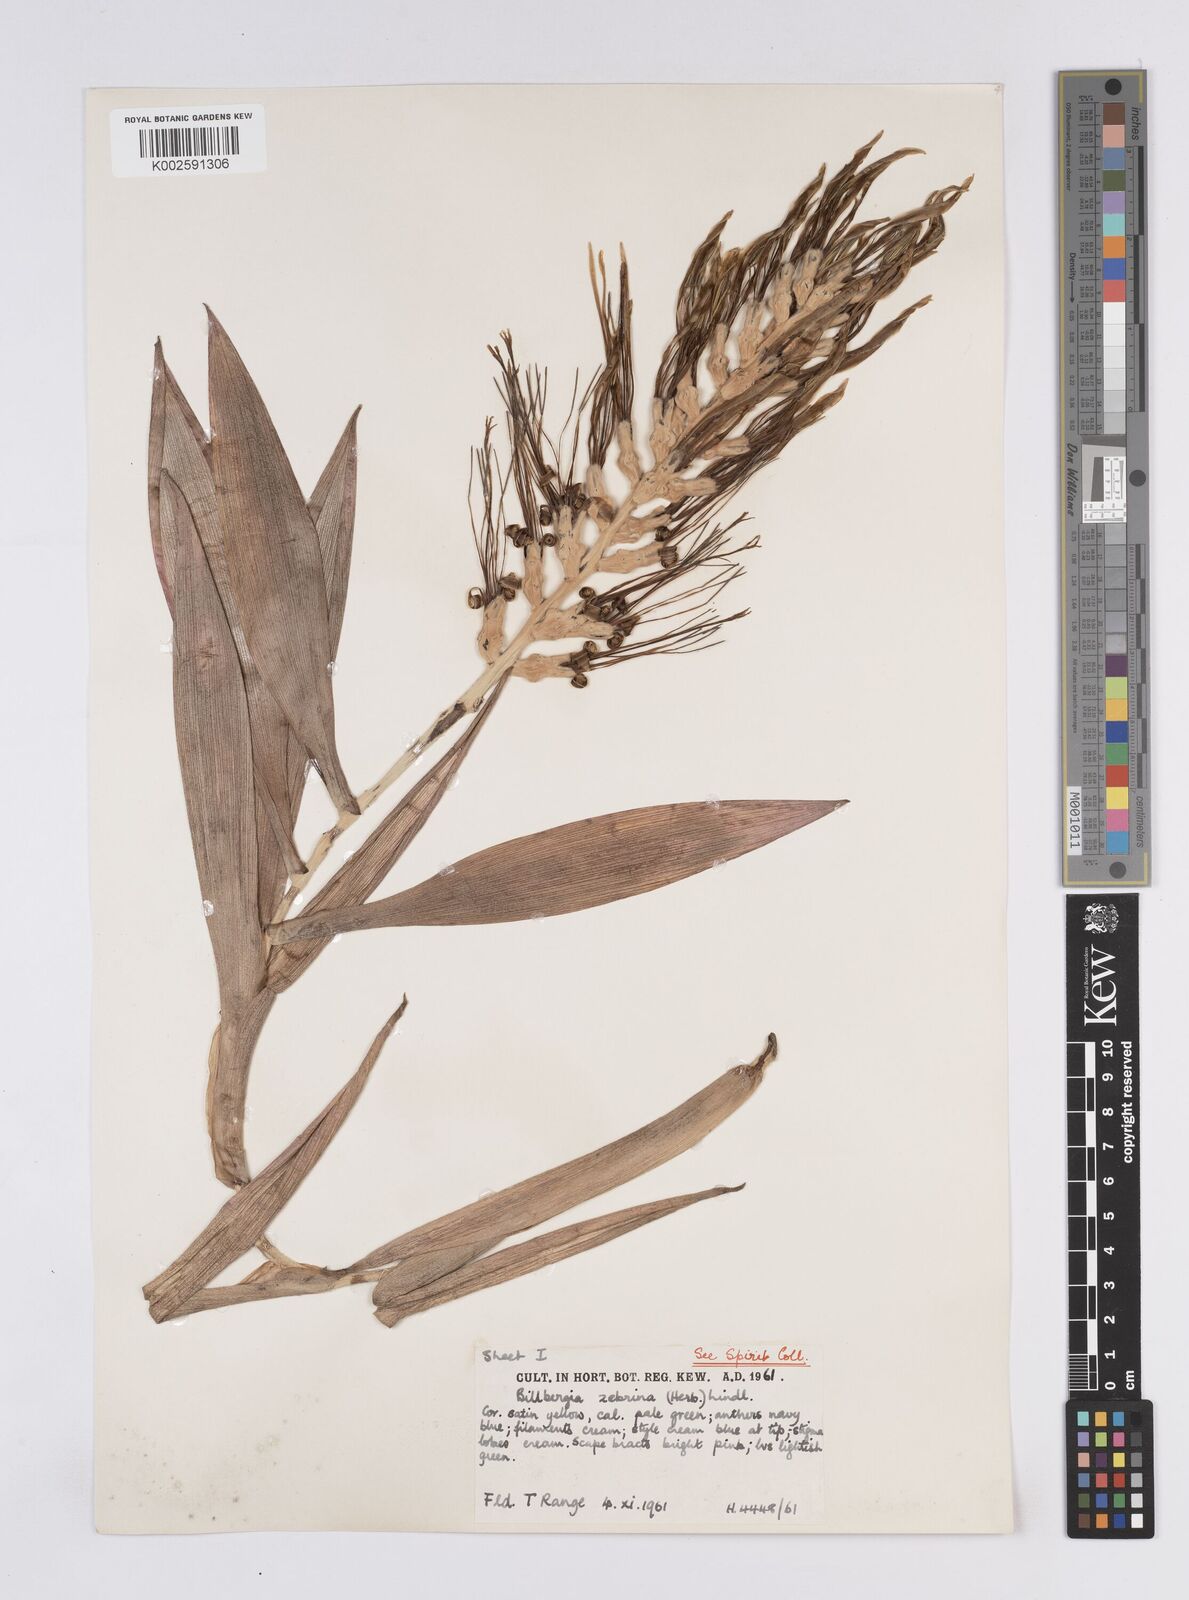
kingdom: Plantae
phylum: Tracheophyta
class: Liliopsida
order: Poales
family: Bromeliaceae
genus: Billbergia
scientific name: Billbergia zebrina
